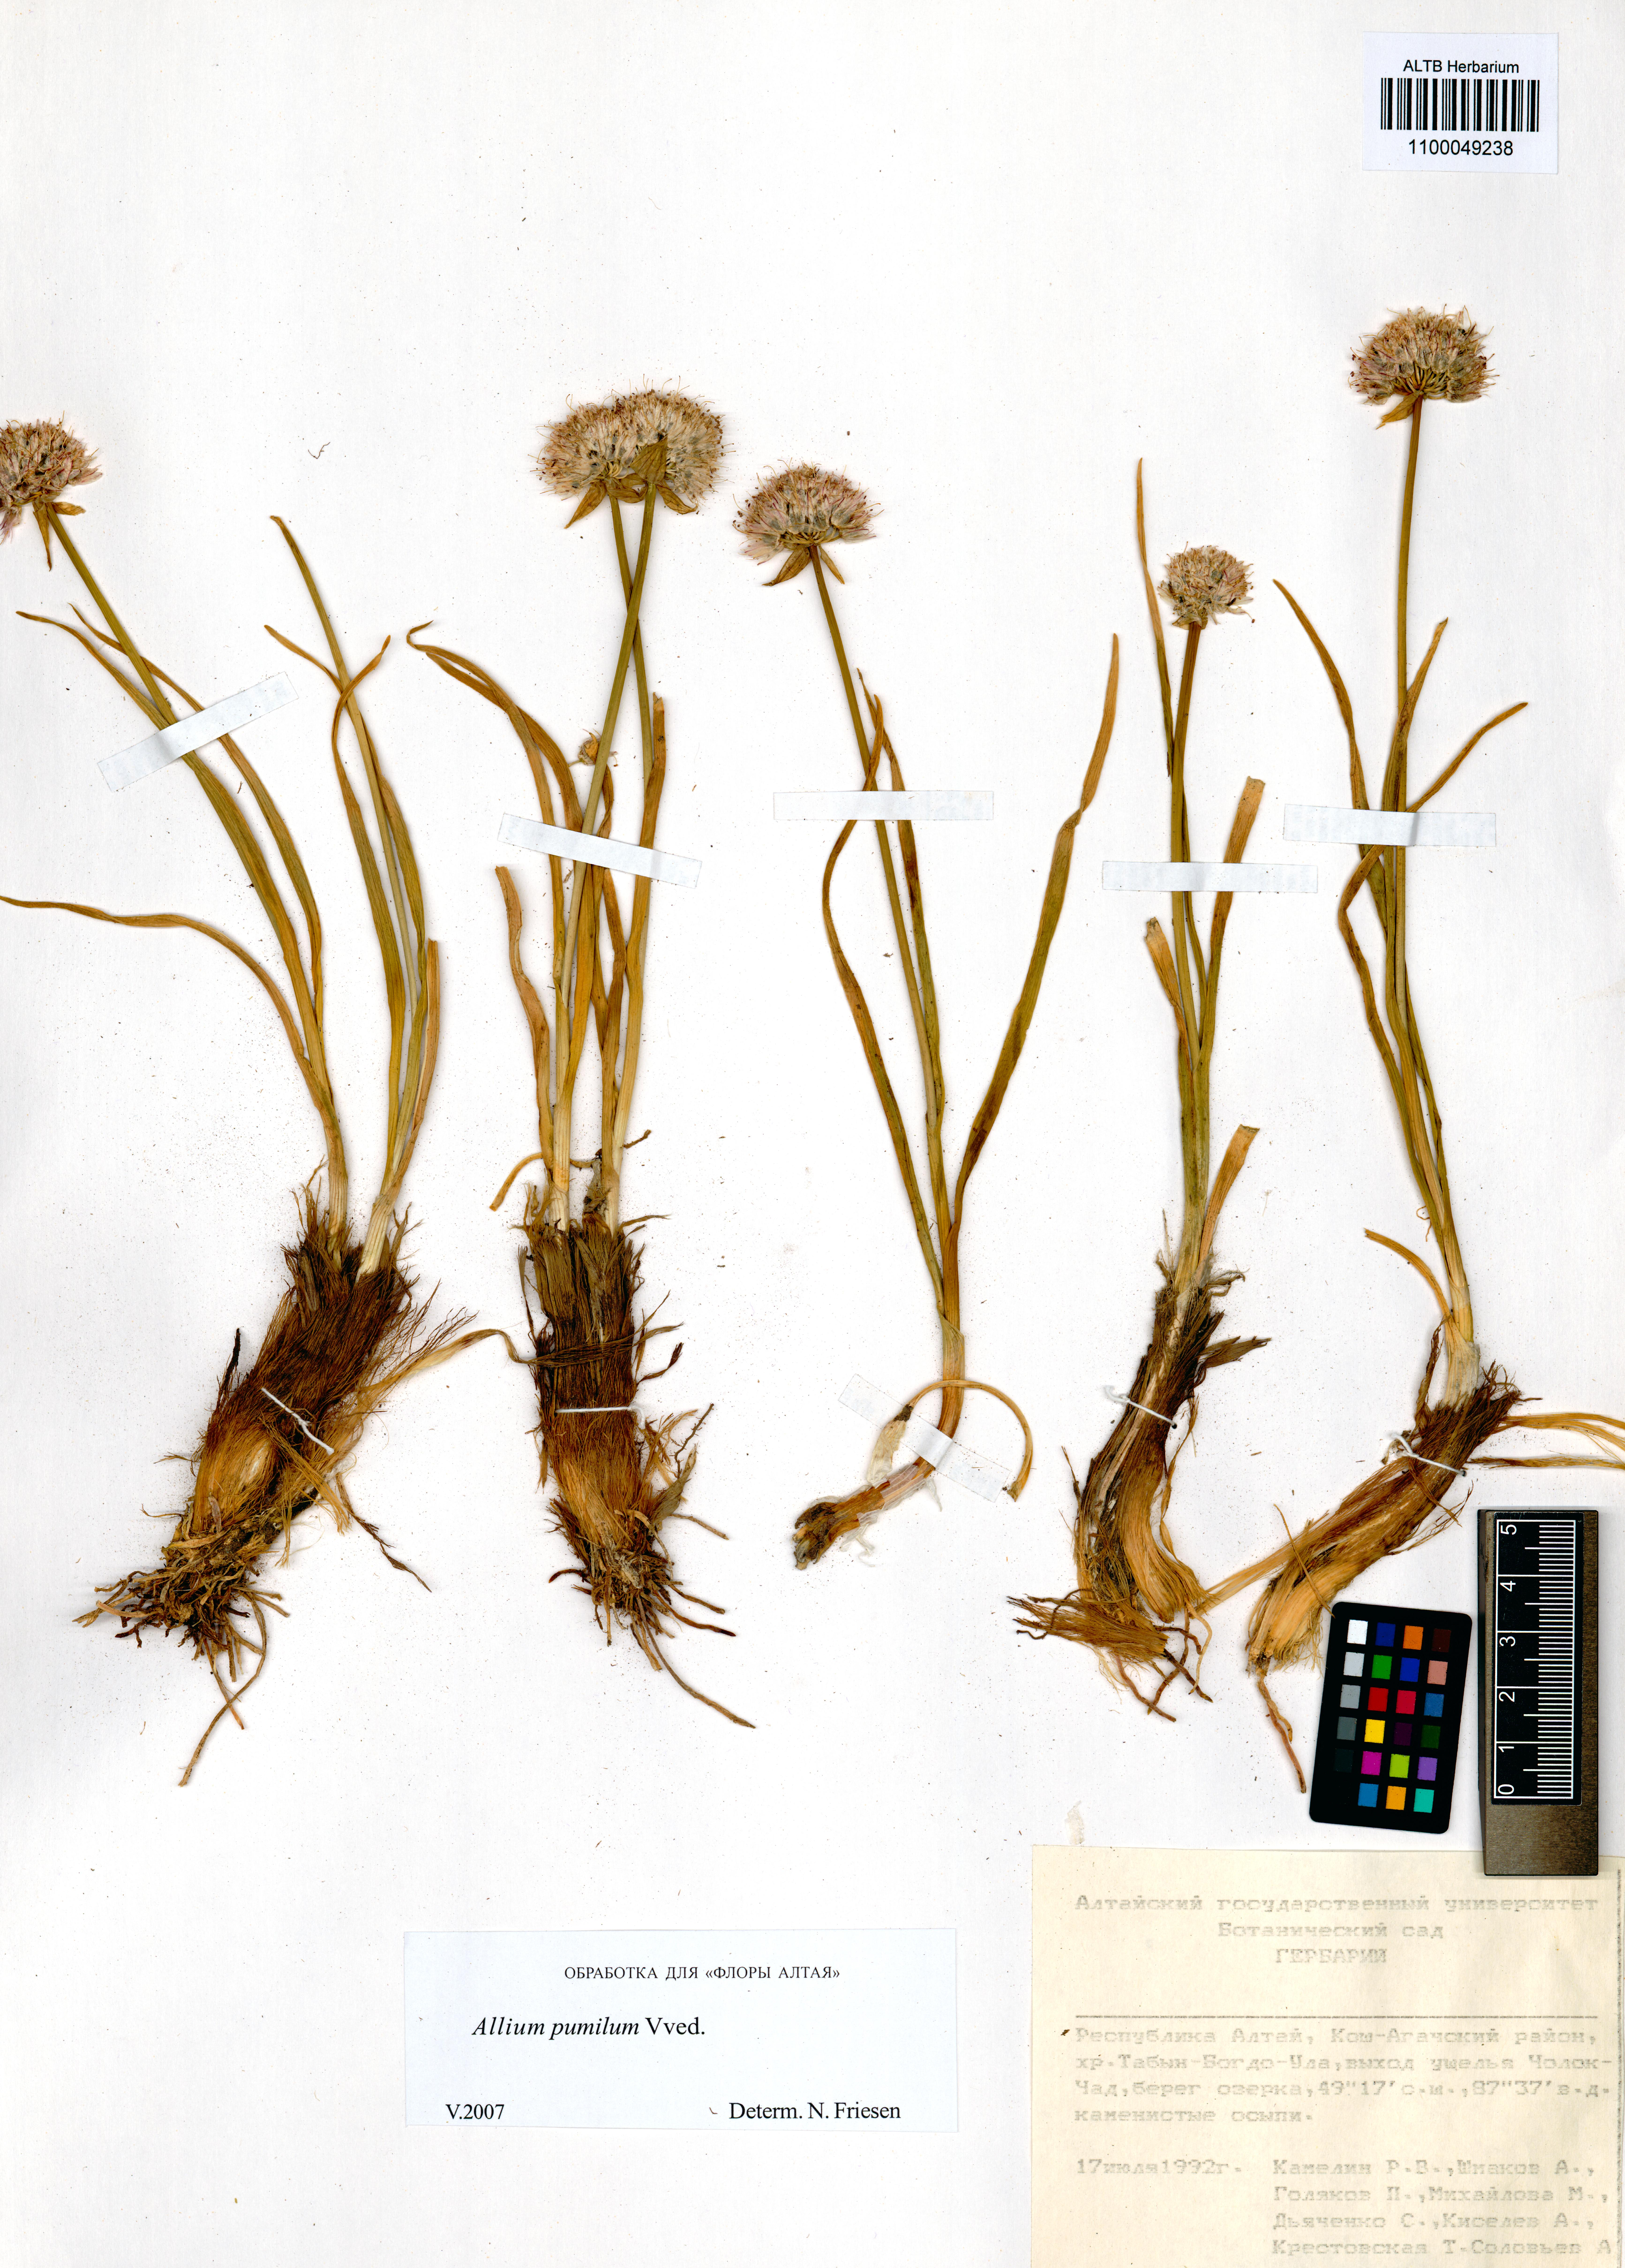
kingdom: Plantae
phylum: Tracheophyta
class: Liliopsida
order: Asparagales
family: Amaryllidaceae
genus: Allium
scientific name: Allium pumilum
